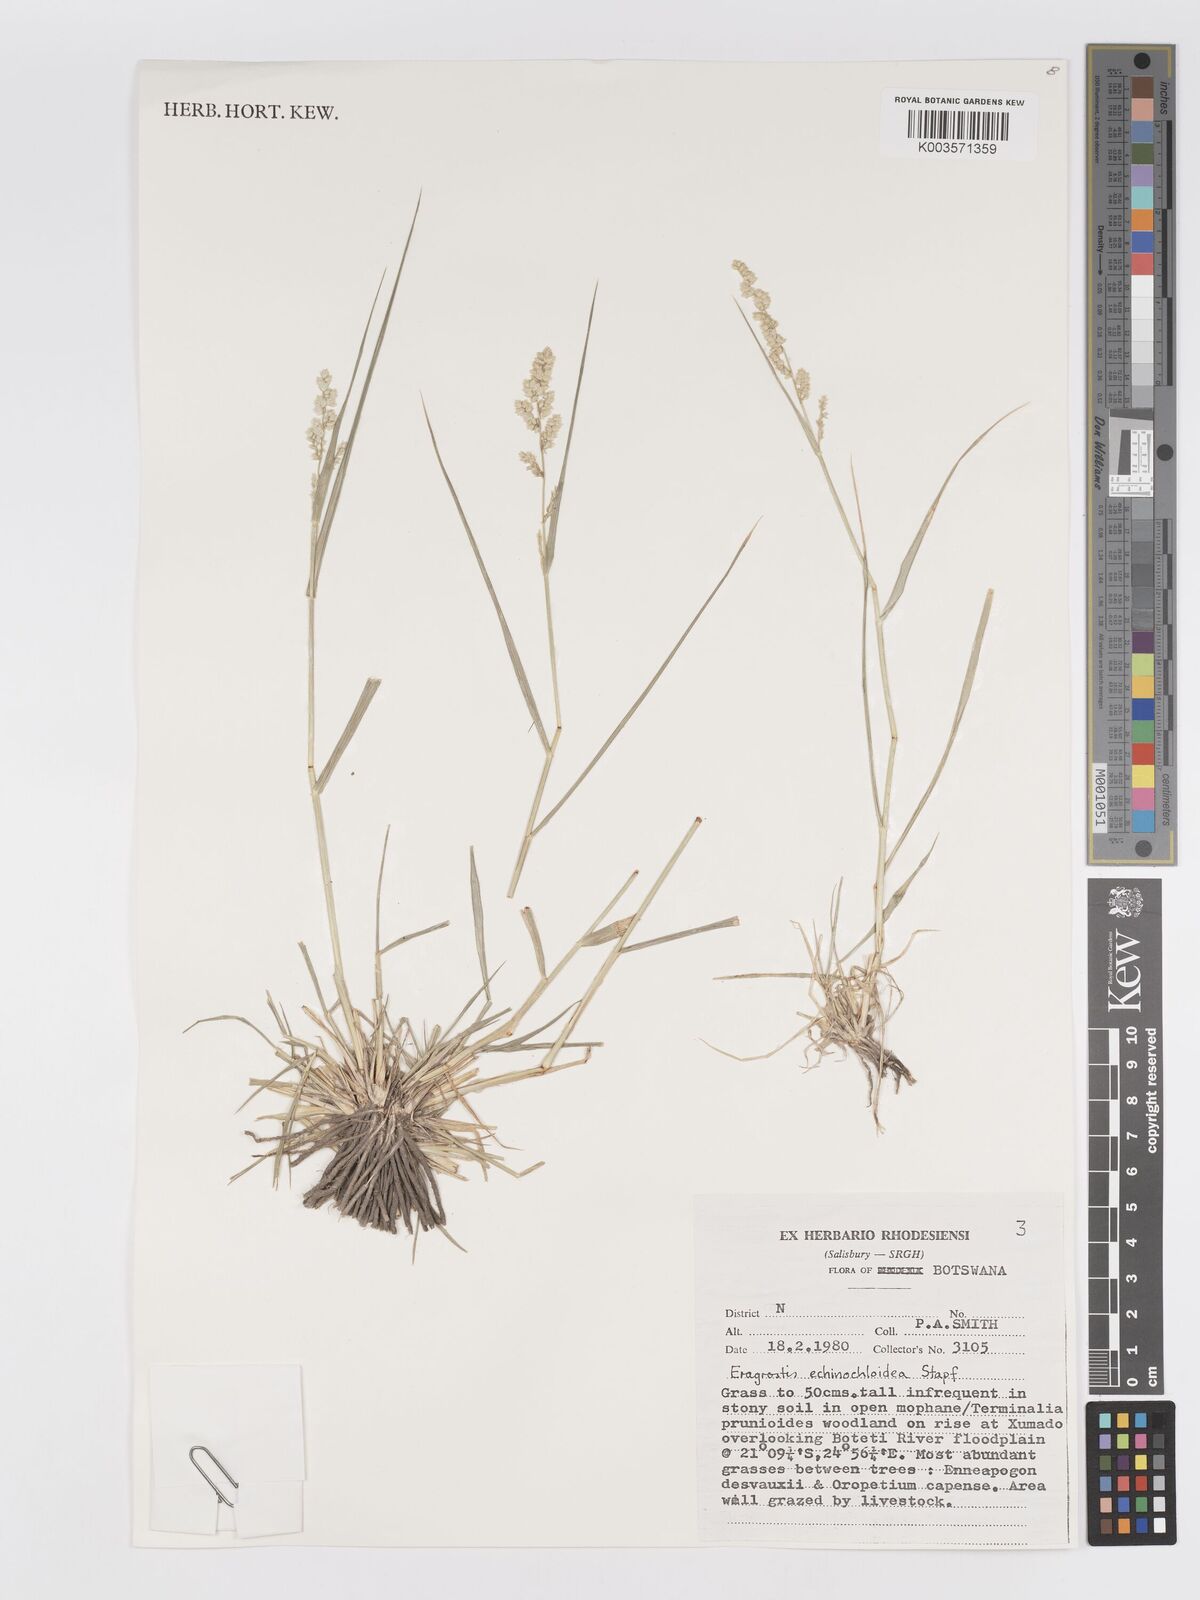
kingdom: Plantae
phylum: Tracheophyta
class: Liliopsida
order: Poales
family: Poaceae
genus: Eragrostis
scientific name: Eragrostis echinochloidea
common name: African lovegrass
